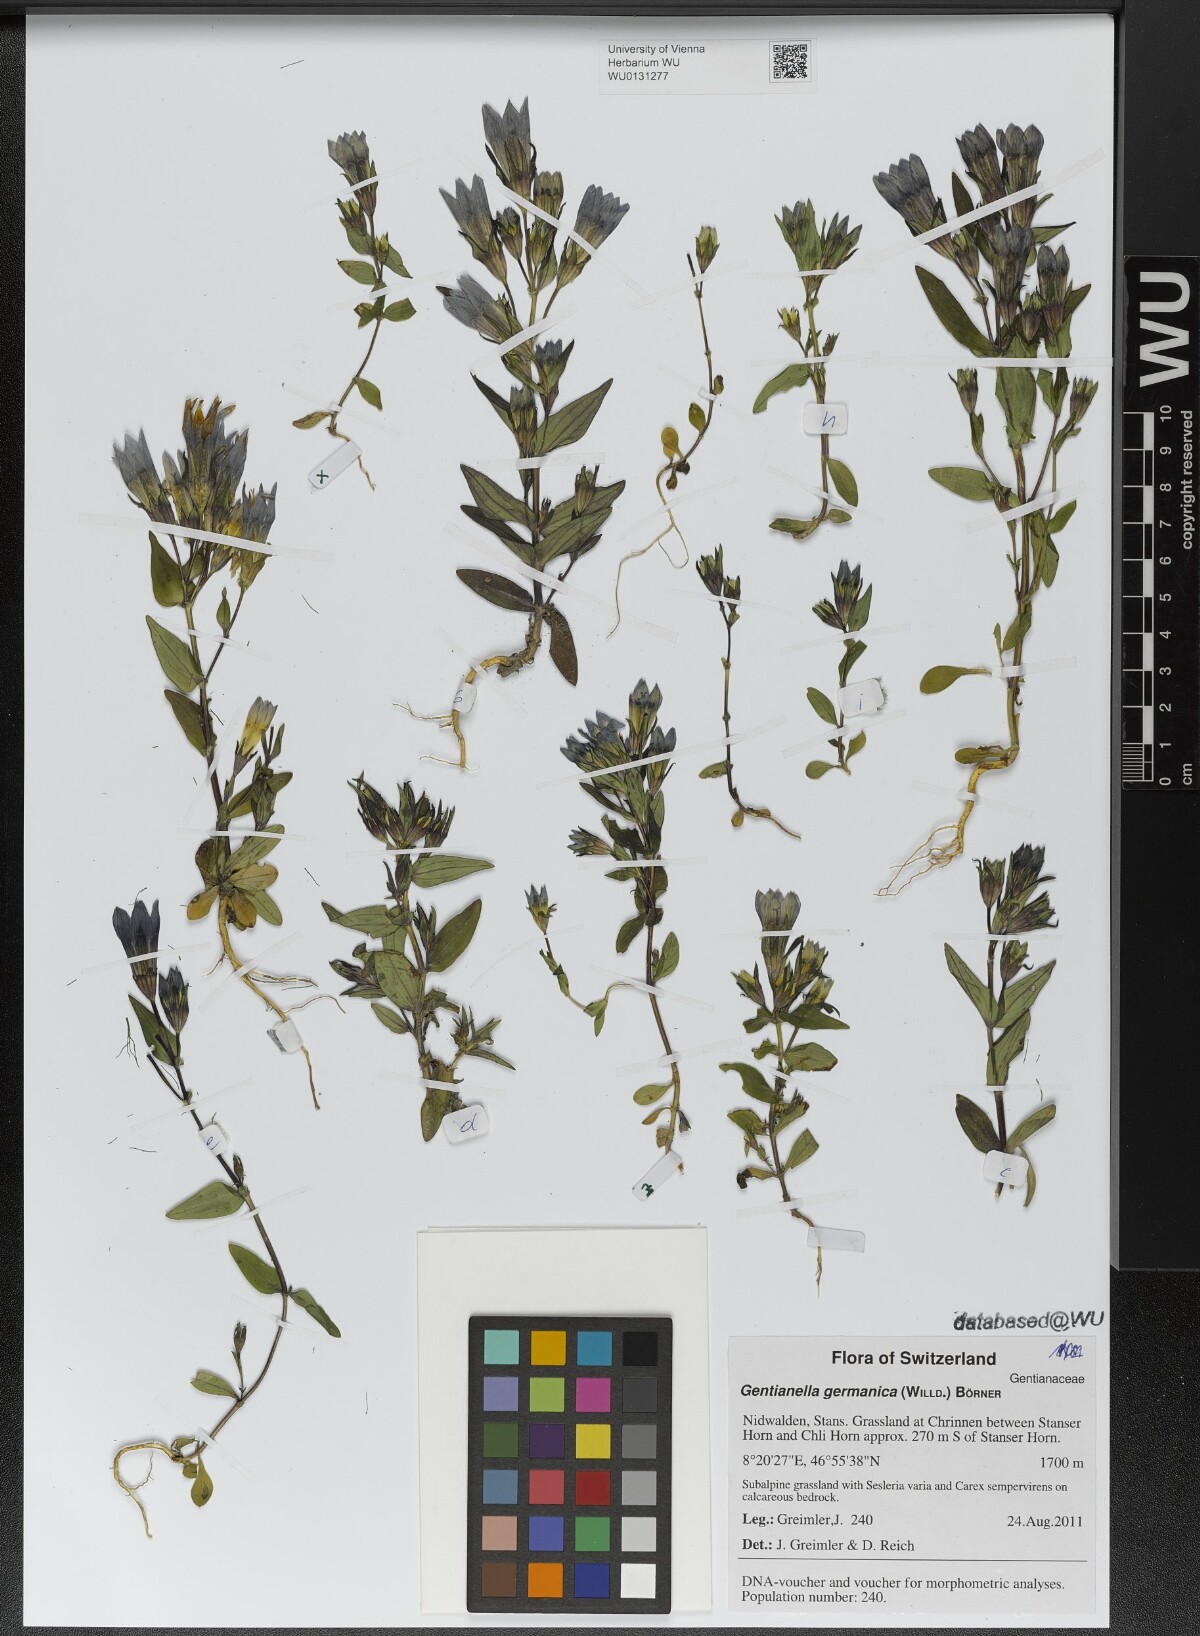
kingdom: Plantae
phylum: Tracheophyta
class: Magnoliopsida
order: Gentianales
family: Gentianaceae
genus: Gentianella
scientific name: Gentianella germanica
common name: Chiltern-gentian
